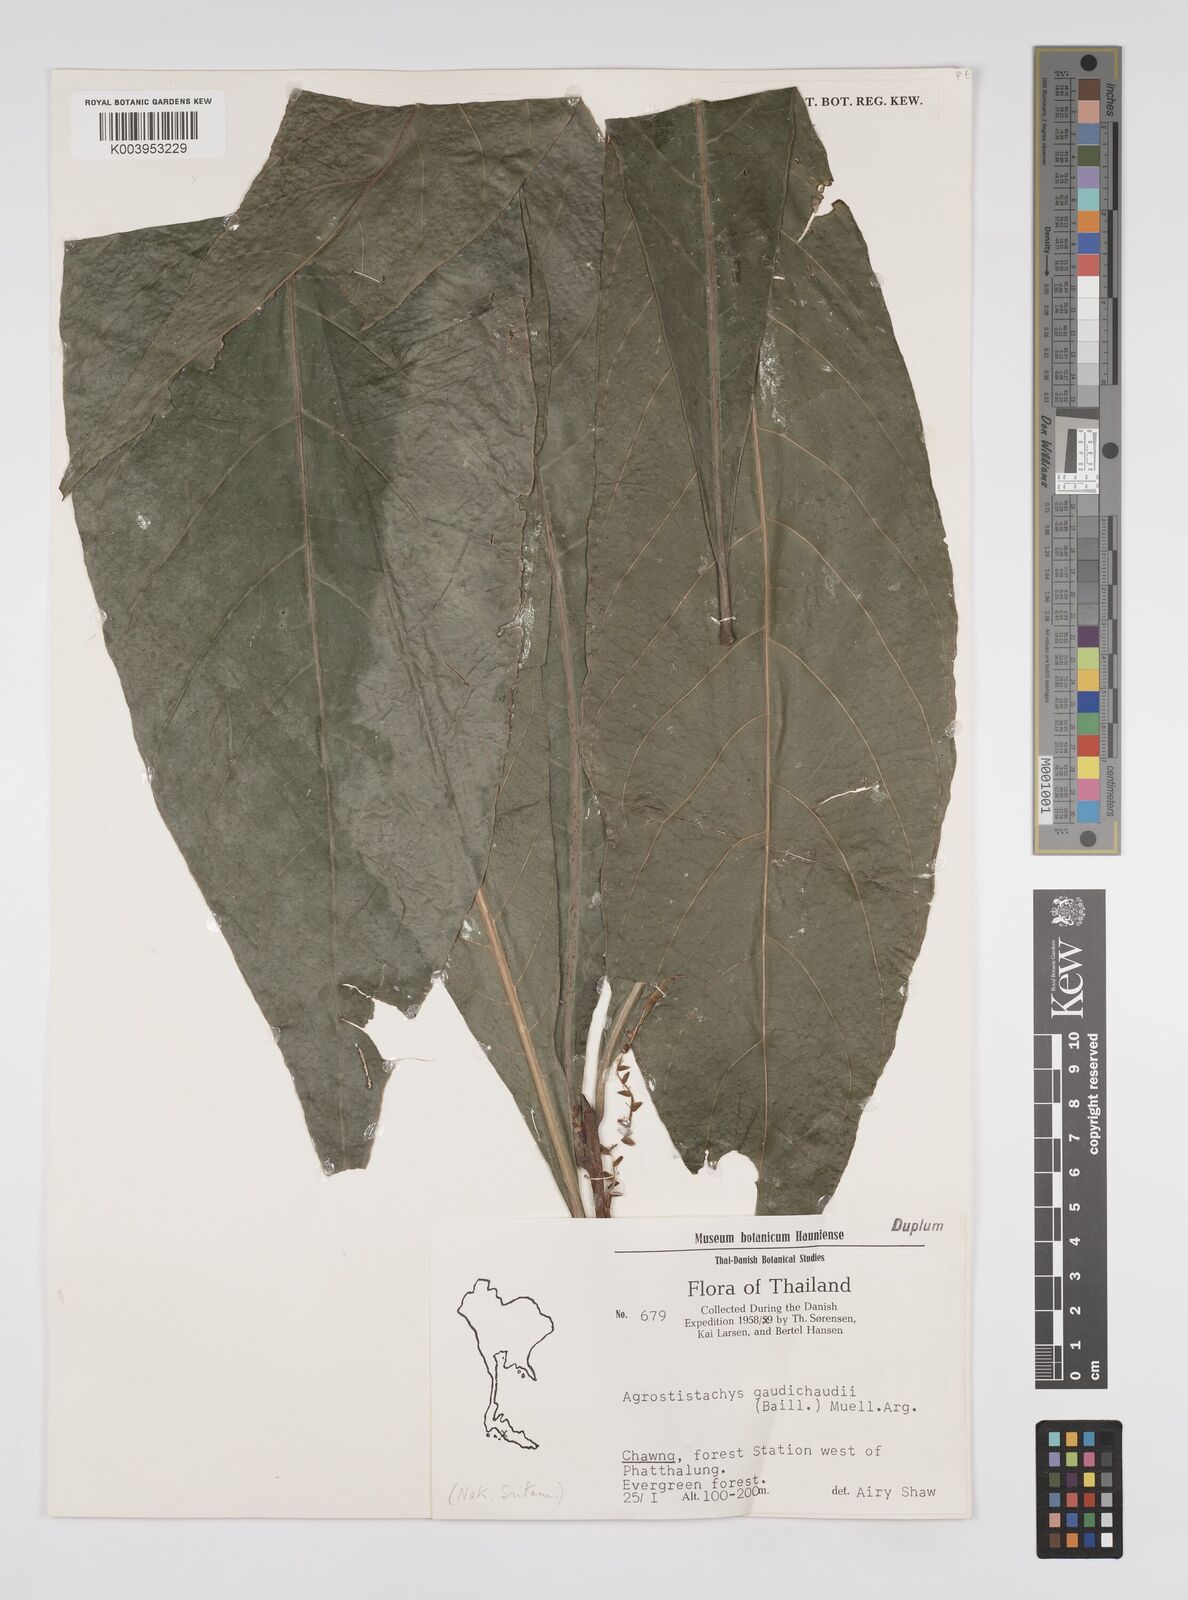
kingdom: Plantae
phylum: Tracheophyta
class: Magnoliopsida
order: Malpighiales
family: Euphorbiaceae
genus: Agrostistachys
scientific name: Agrostistachys gaudichaudii
